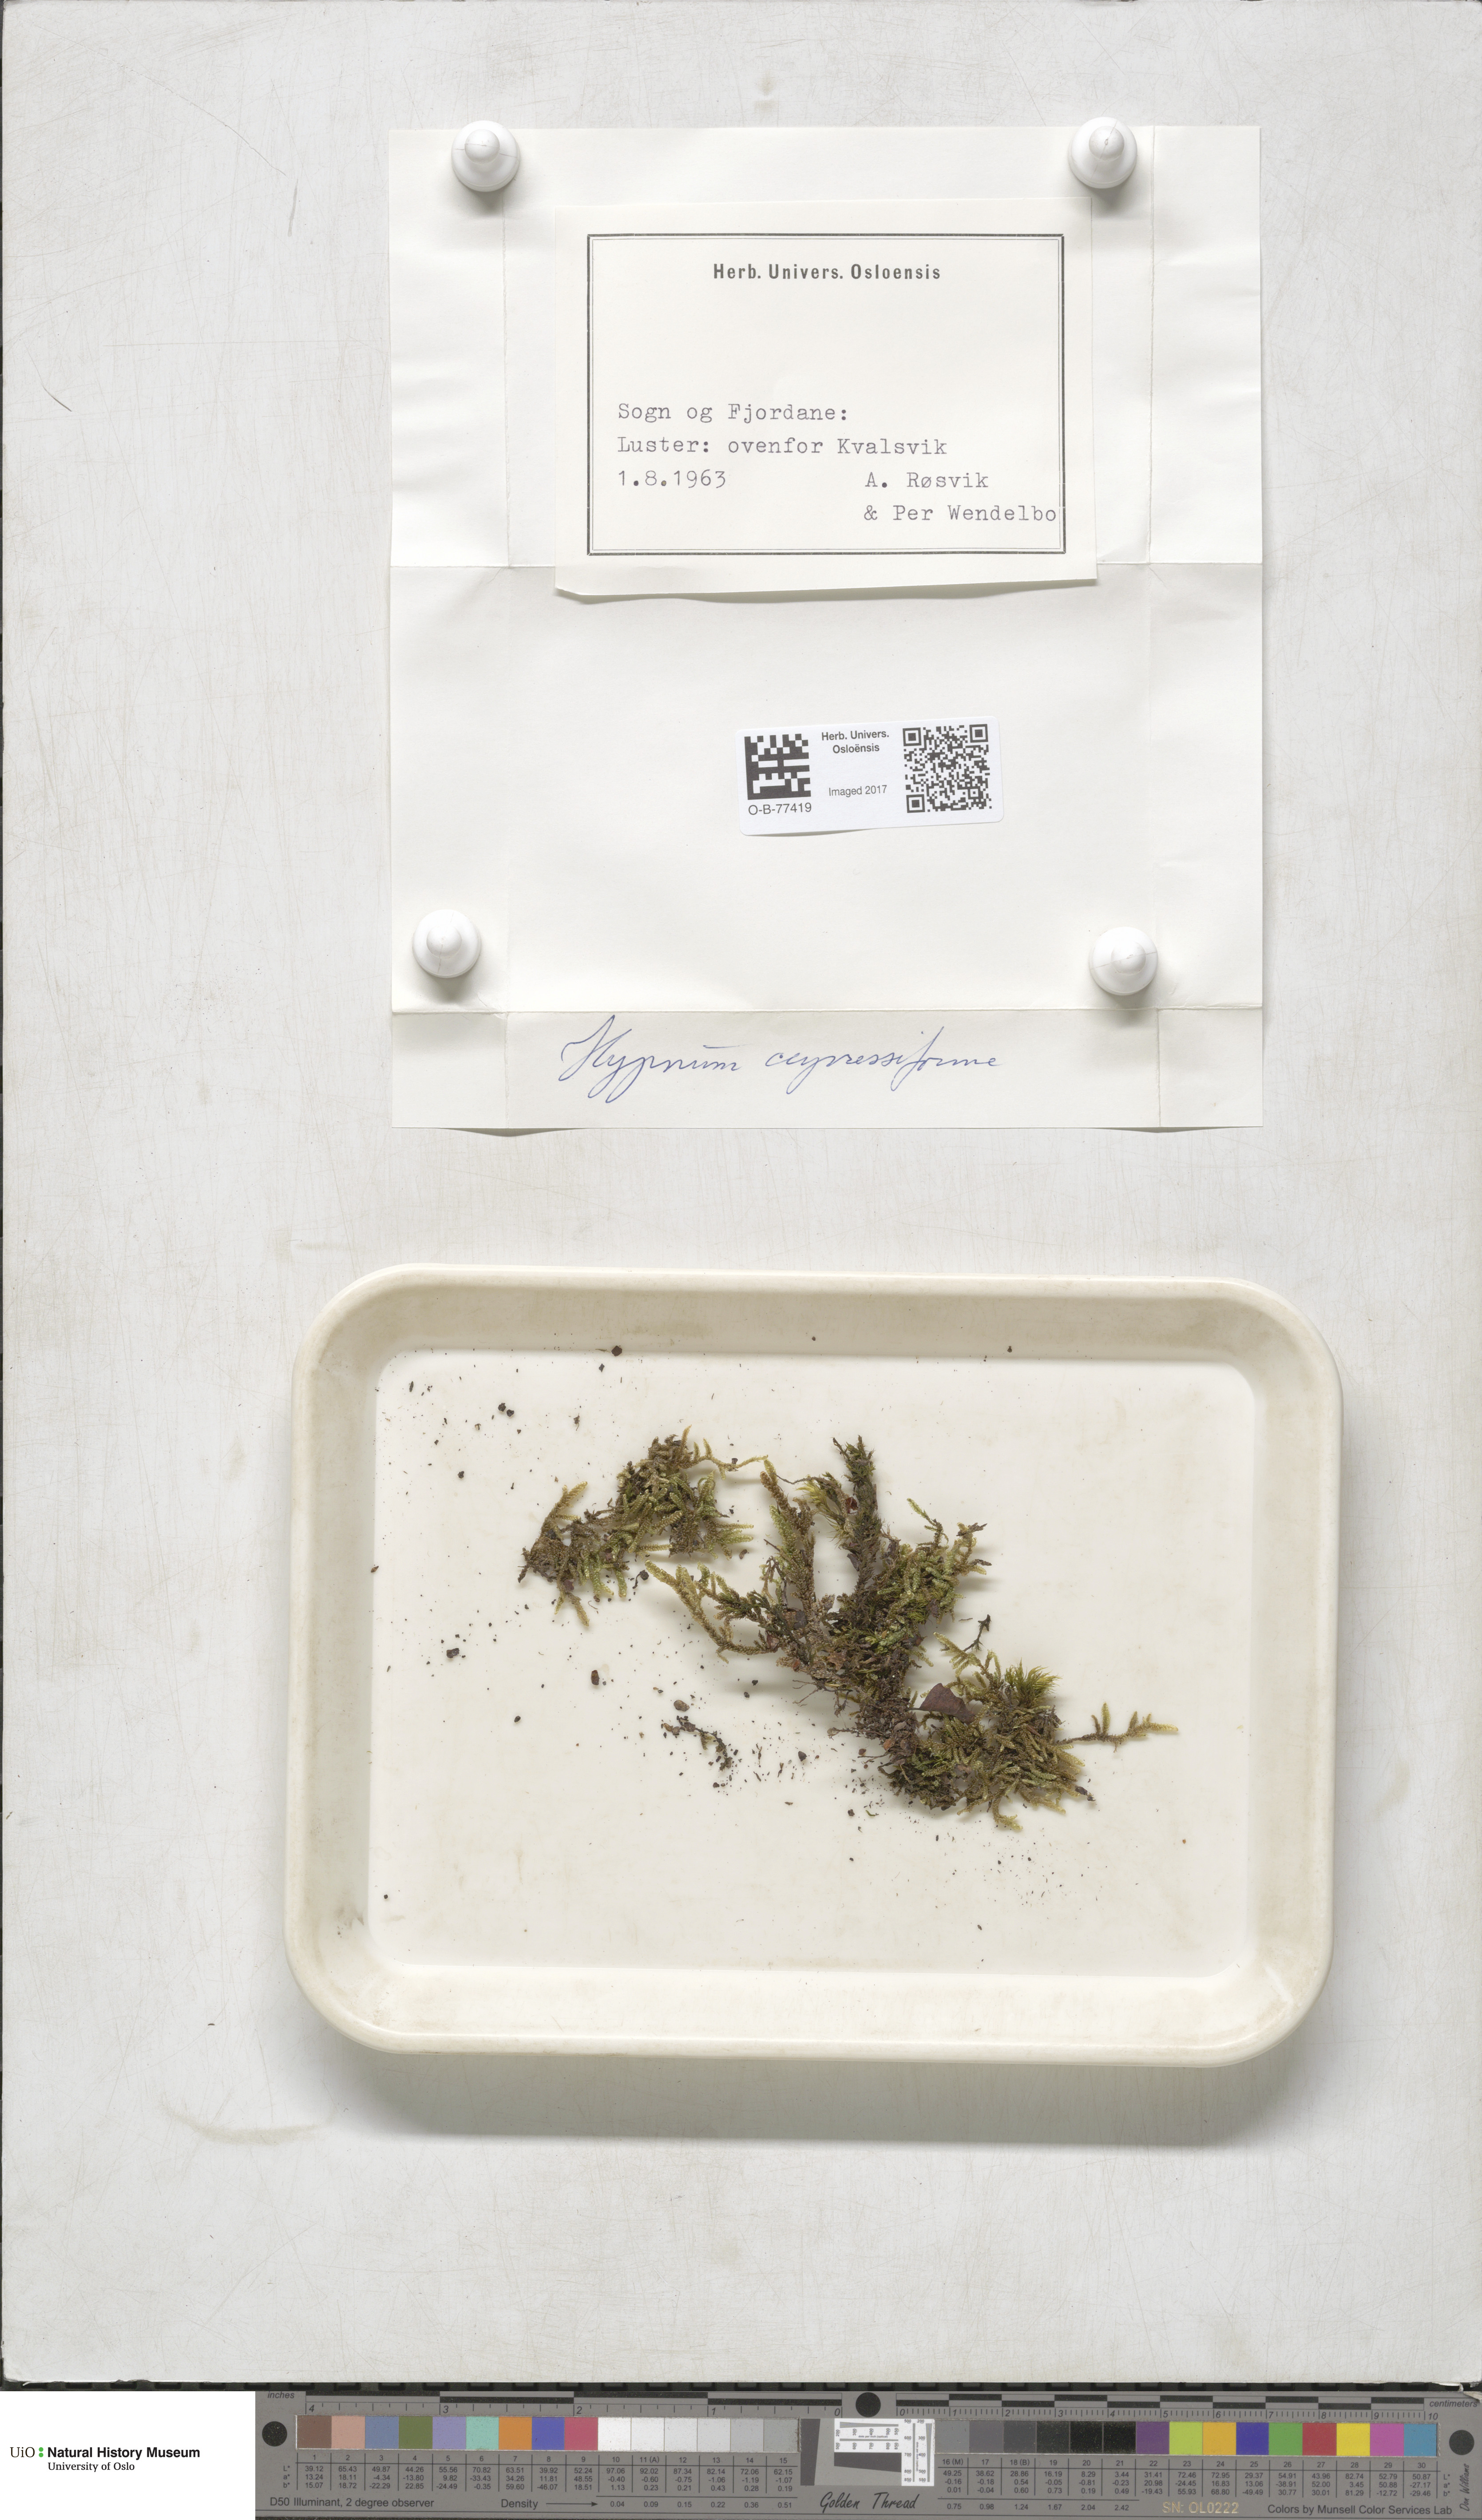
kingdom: Plantae
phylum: Bryophyta
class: Bryopsida
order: Hypnales
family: Hypnaceae
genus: Hypnum
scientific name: Hypnum cupressiforme
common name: Cypress-leaved plait-moss
